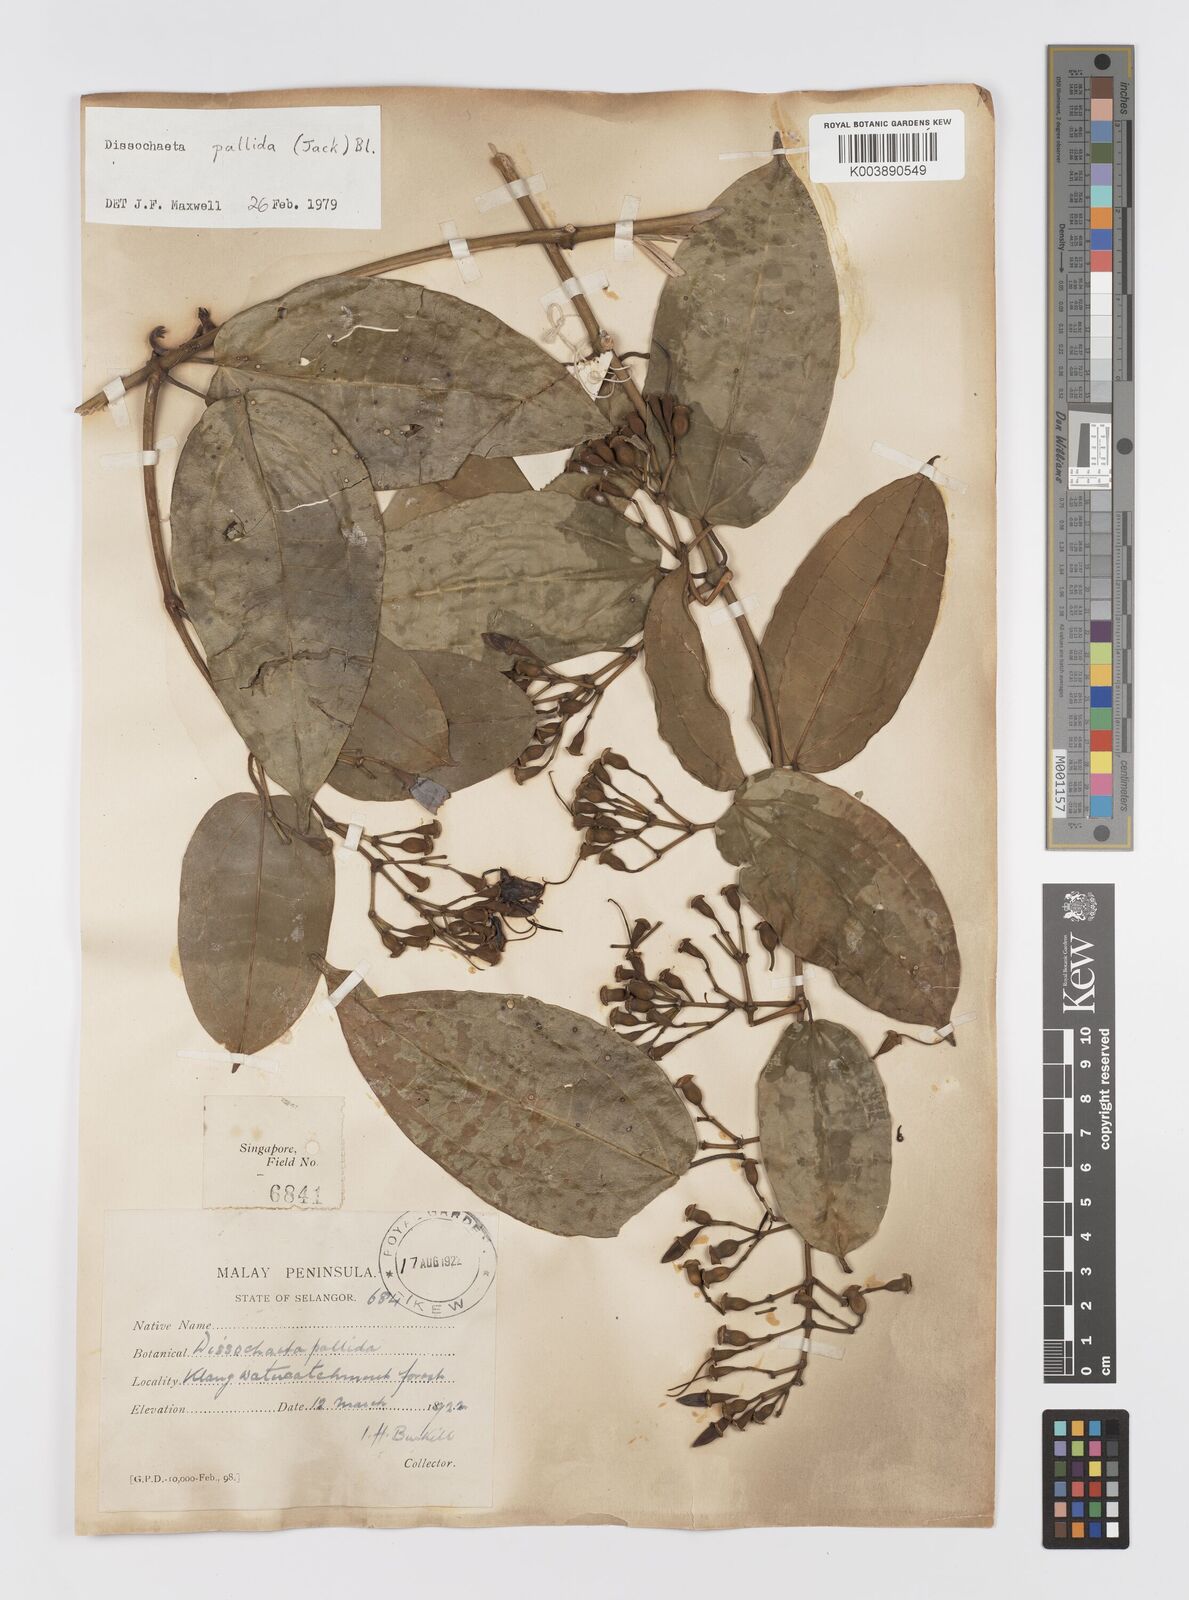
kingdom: Plantae
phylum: Tracheophyta
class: Magnoliopsida
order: Myrtales
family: Melastomataceae
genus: Dissochaeta
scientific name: Dissochaeta pallida
